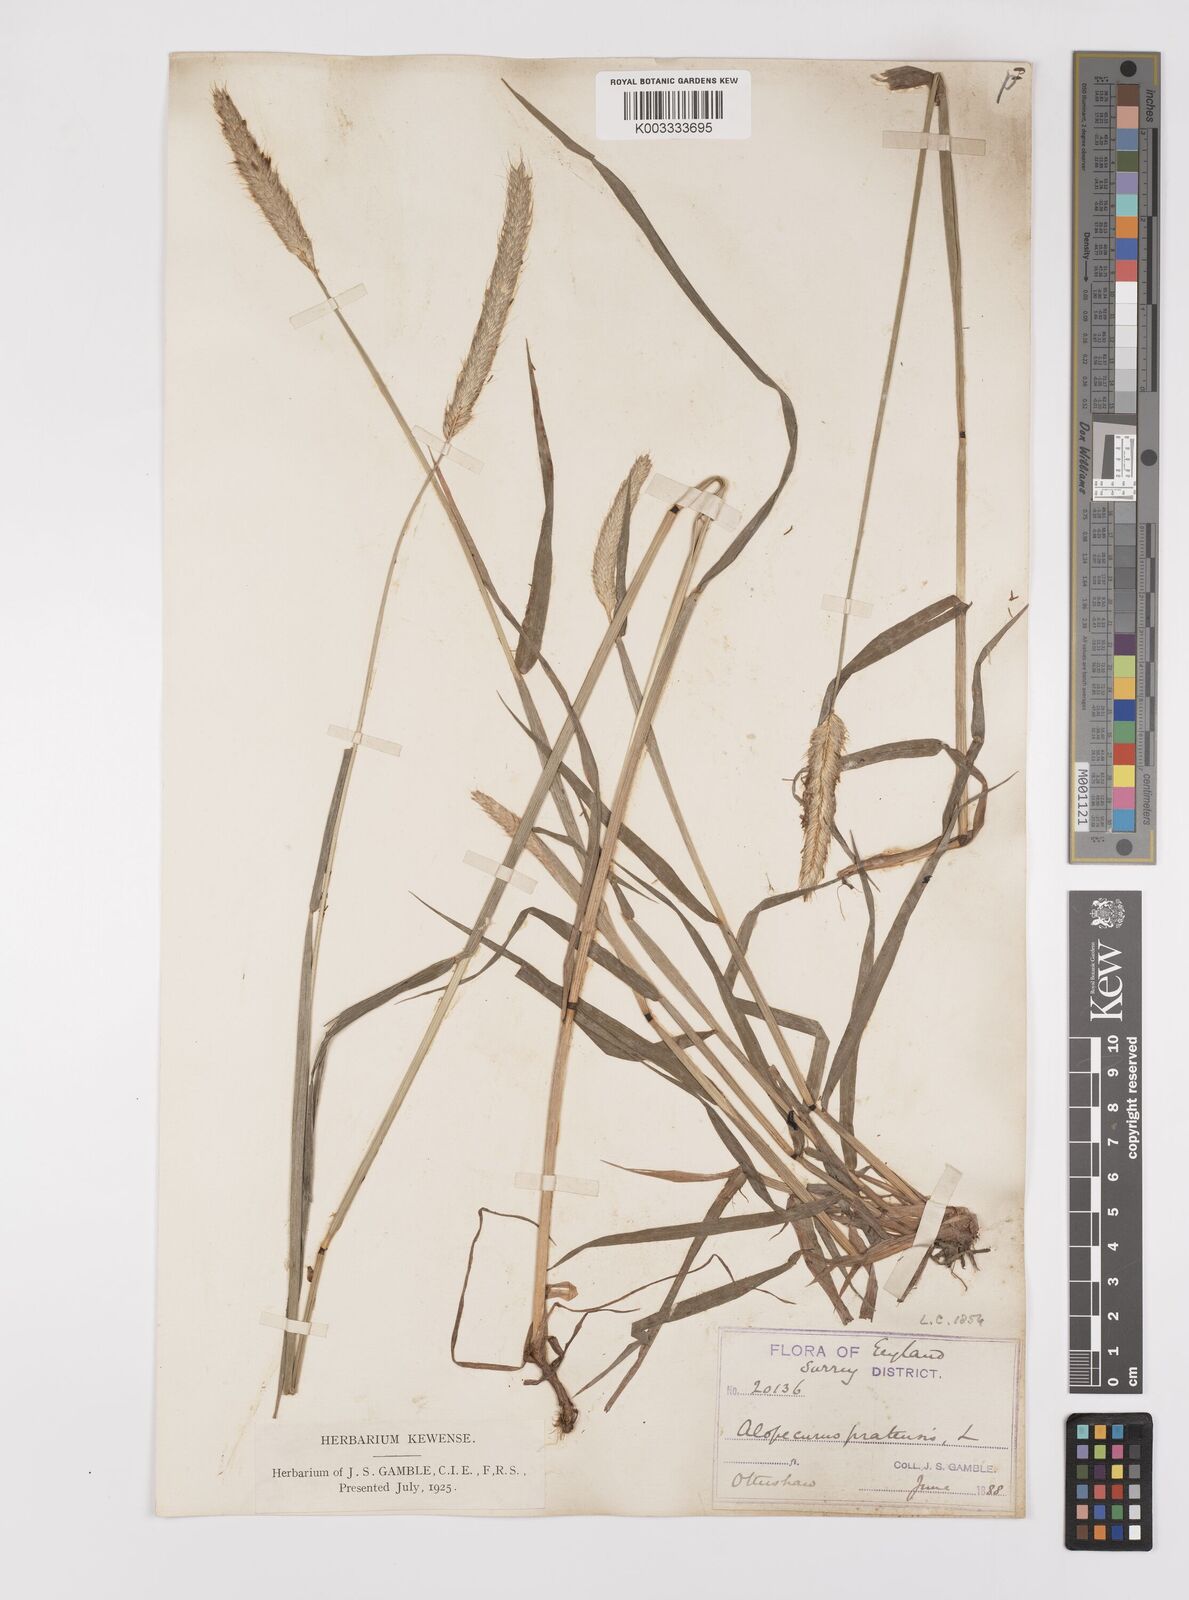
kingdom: Plantae
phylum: Tracheophyta
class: Liliopsida
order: Poales
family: Poaceae
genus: Alopecurus
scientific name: Alopecurus pratensis
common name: Meadow foxtail
